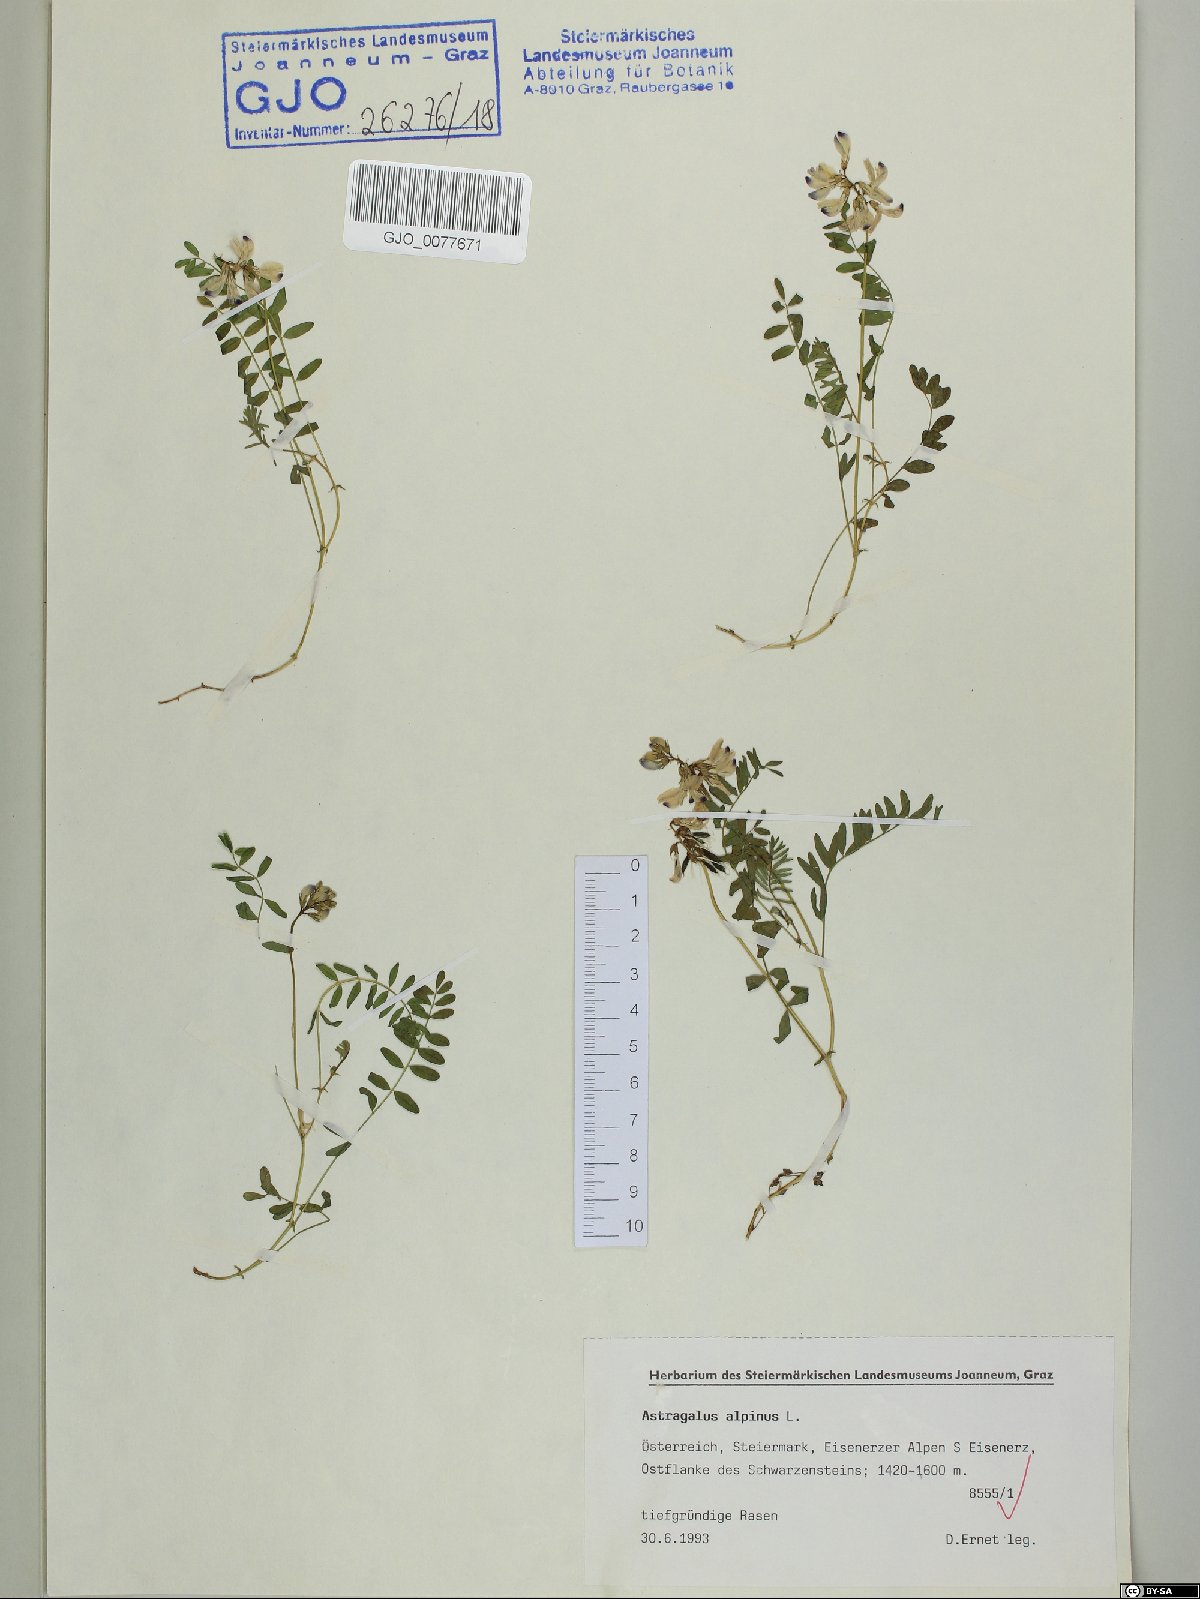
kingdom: Plantae
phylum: Tracheophyta
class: Magnoliopsida
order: Fabales
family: Fabaceae
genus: Astragalus
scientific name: Astragalus alpinus
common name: Alpine milk-vetch
